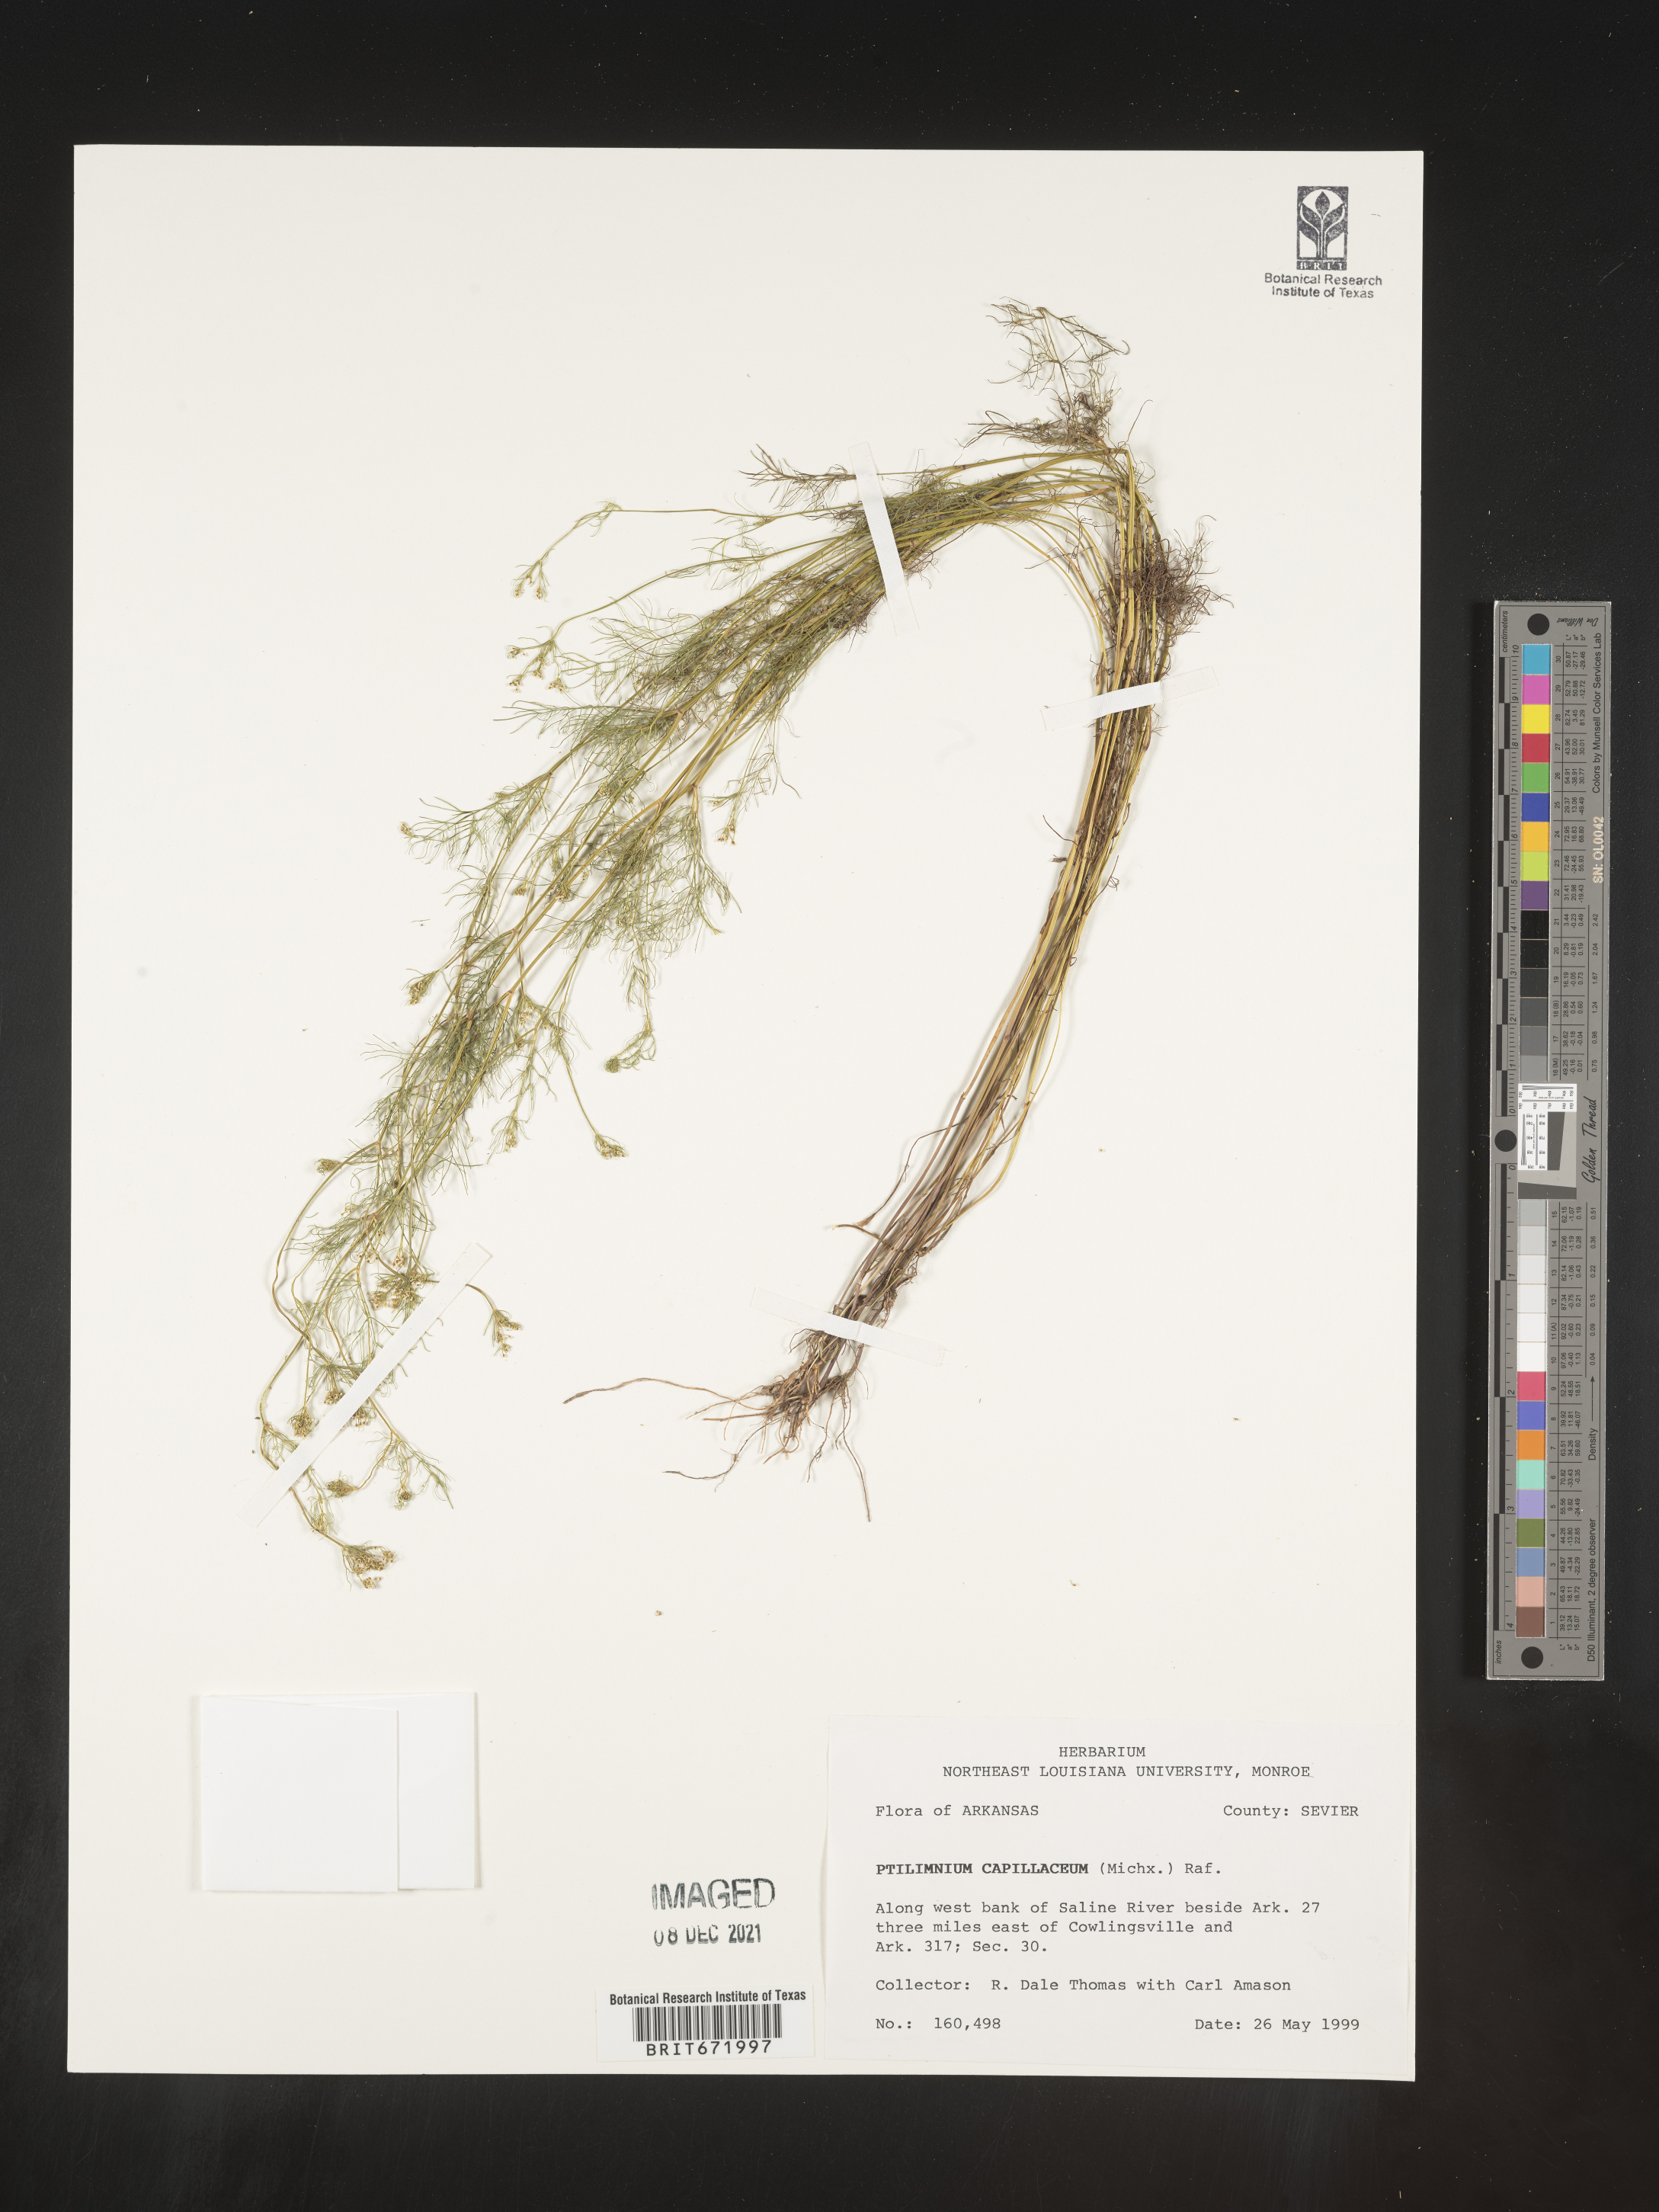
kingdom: Plantae
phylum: Tracheophyta
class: Magnoliopsida
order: Apiales
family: Apiaceae
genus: Ptilimnium
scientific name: Ptilimnium capillaceum
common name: Herbwilliam
